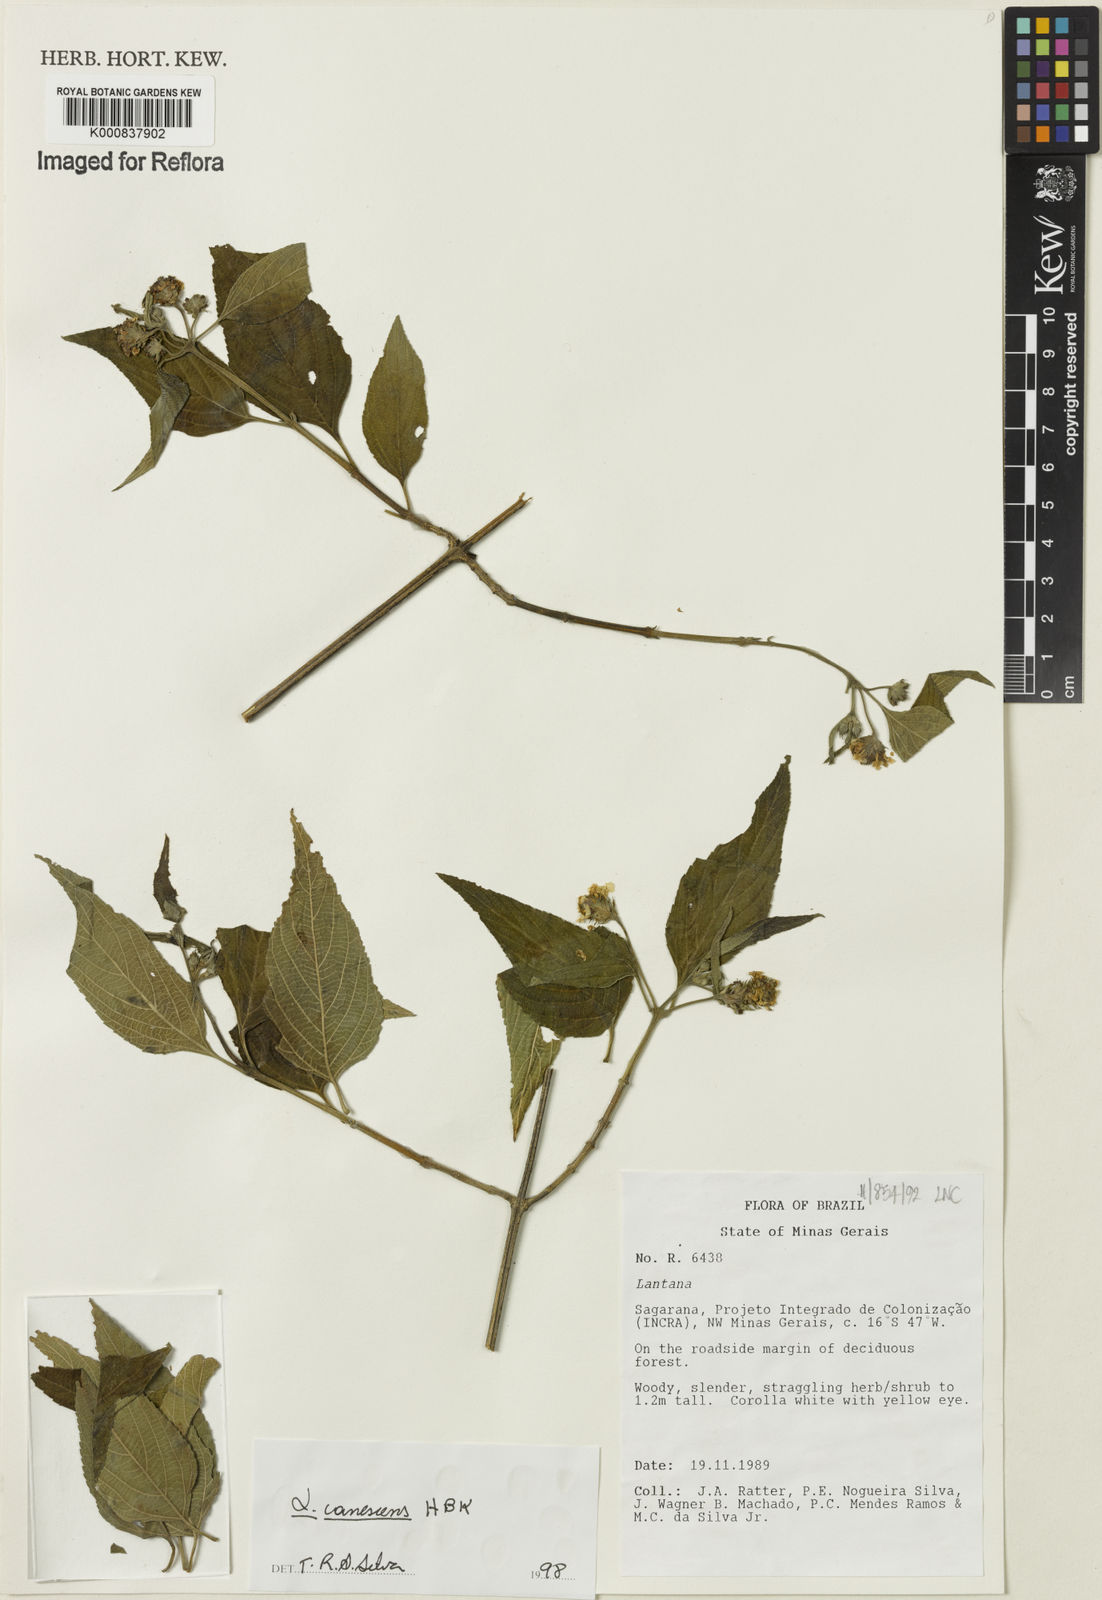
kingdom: Plantae
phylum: Tracheophyta
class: Magnoliopsida
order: Lamiales
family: Verbenaceae
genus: Lantana
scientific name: Lantana canescens
